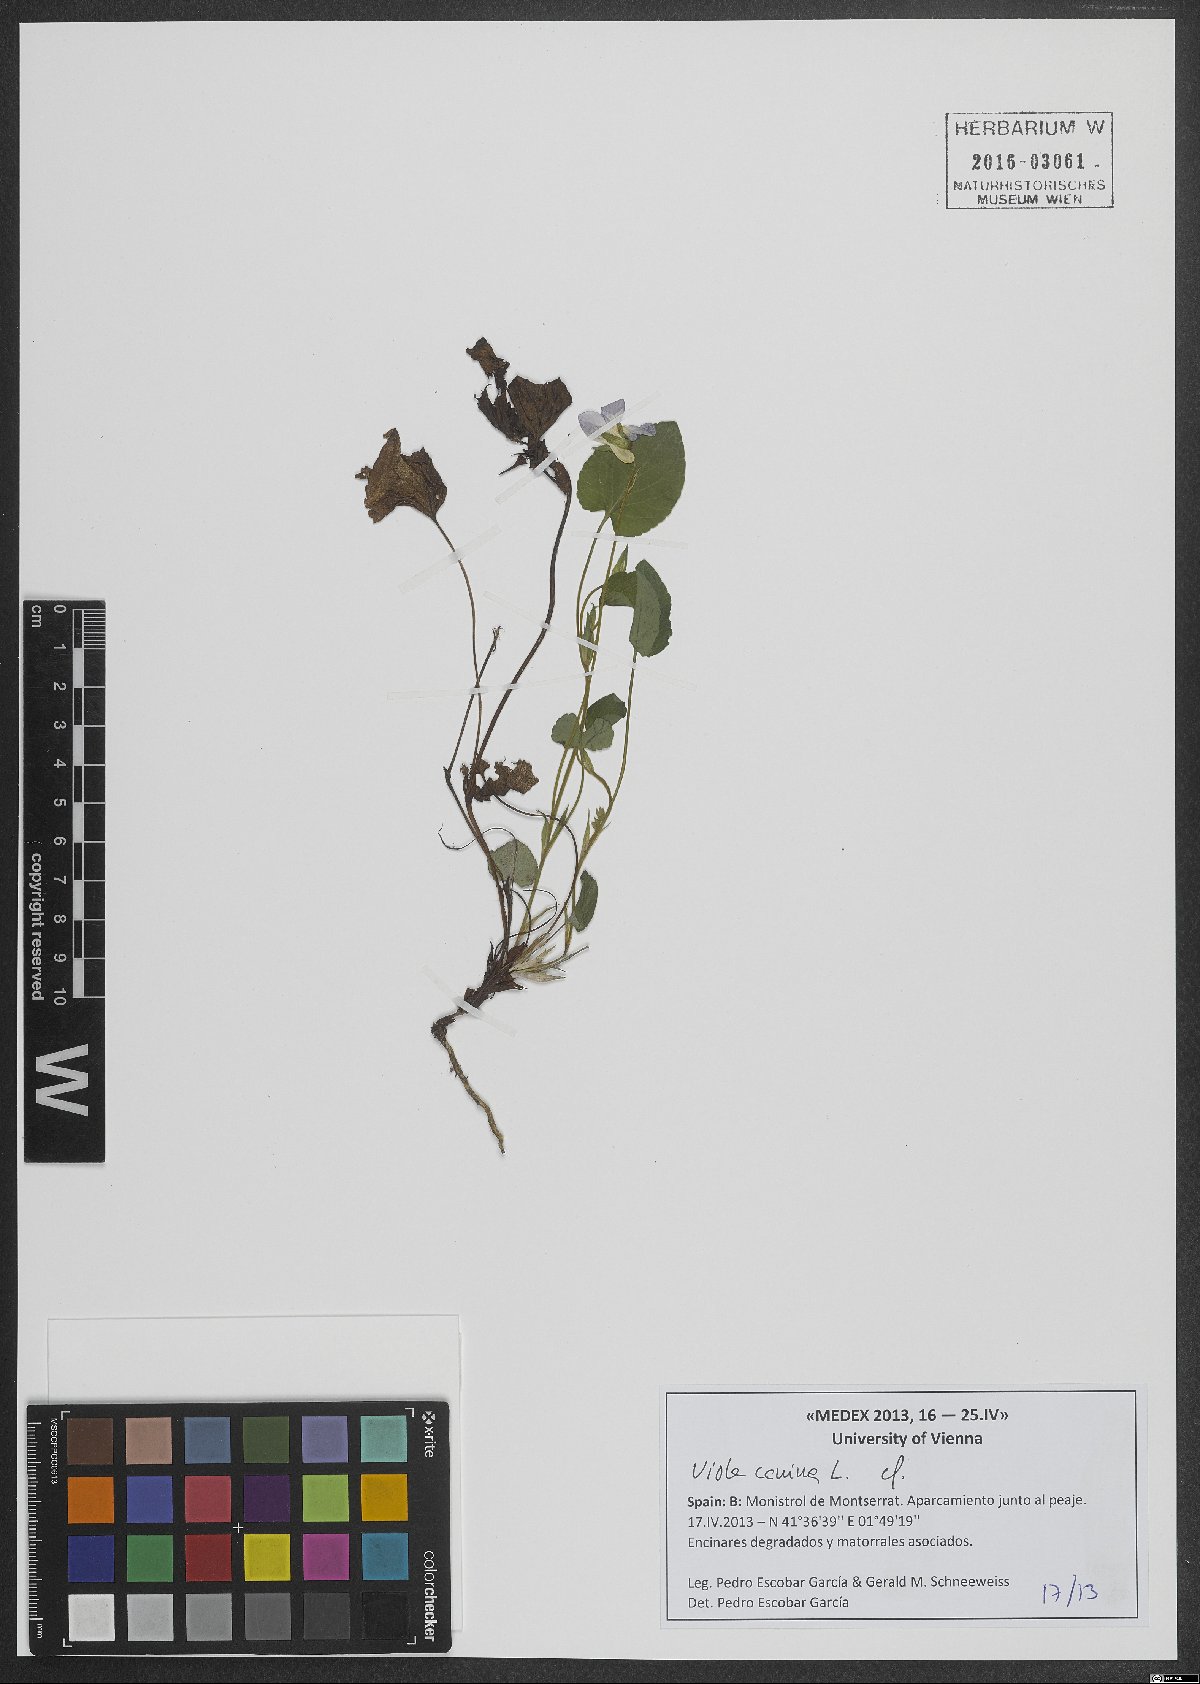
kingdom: Plantae
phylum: Tracheophyta
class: Magnoliopsida
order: Malpighiales
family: Violaceae
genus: Viola
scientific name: Viola canina
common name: Heath dog-violet
